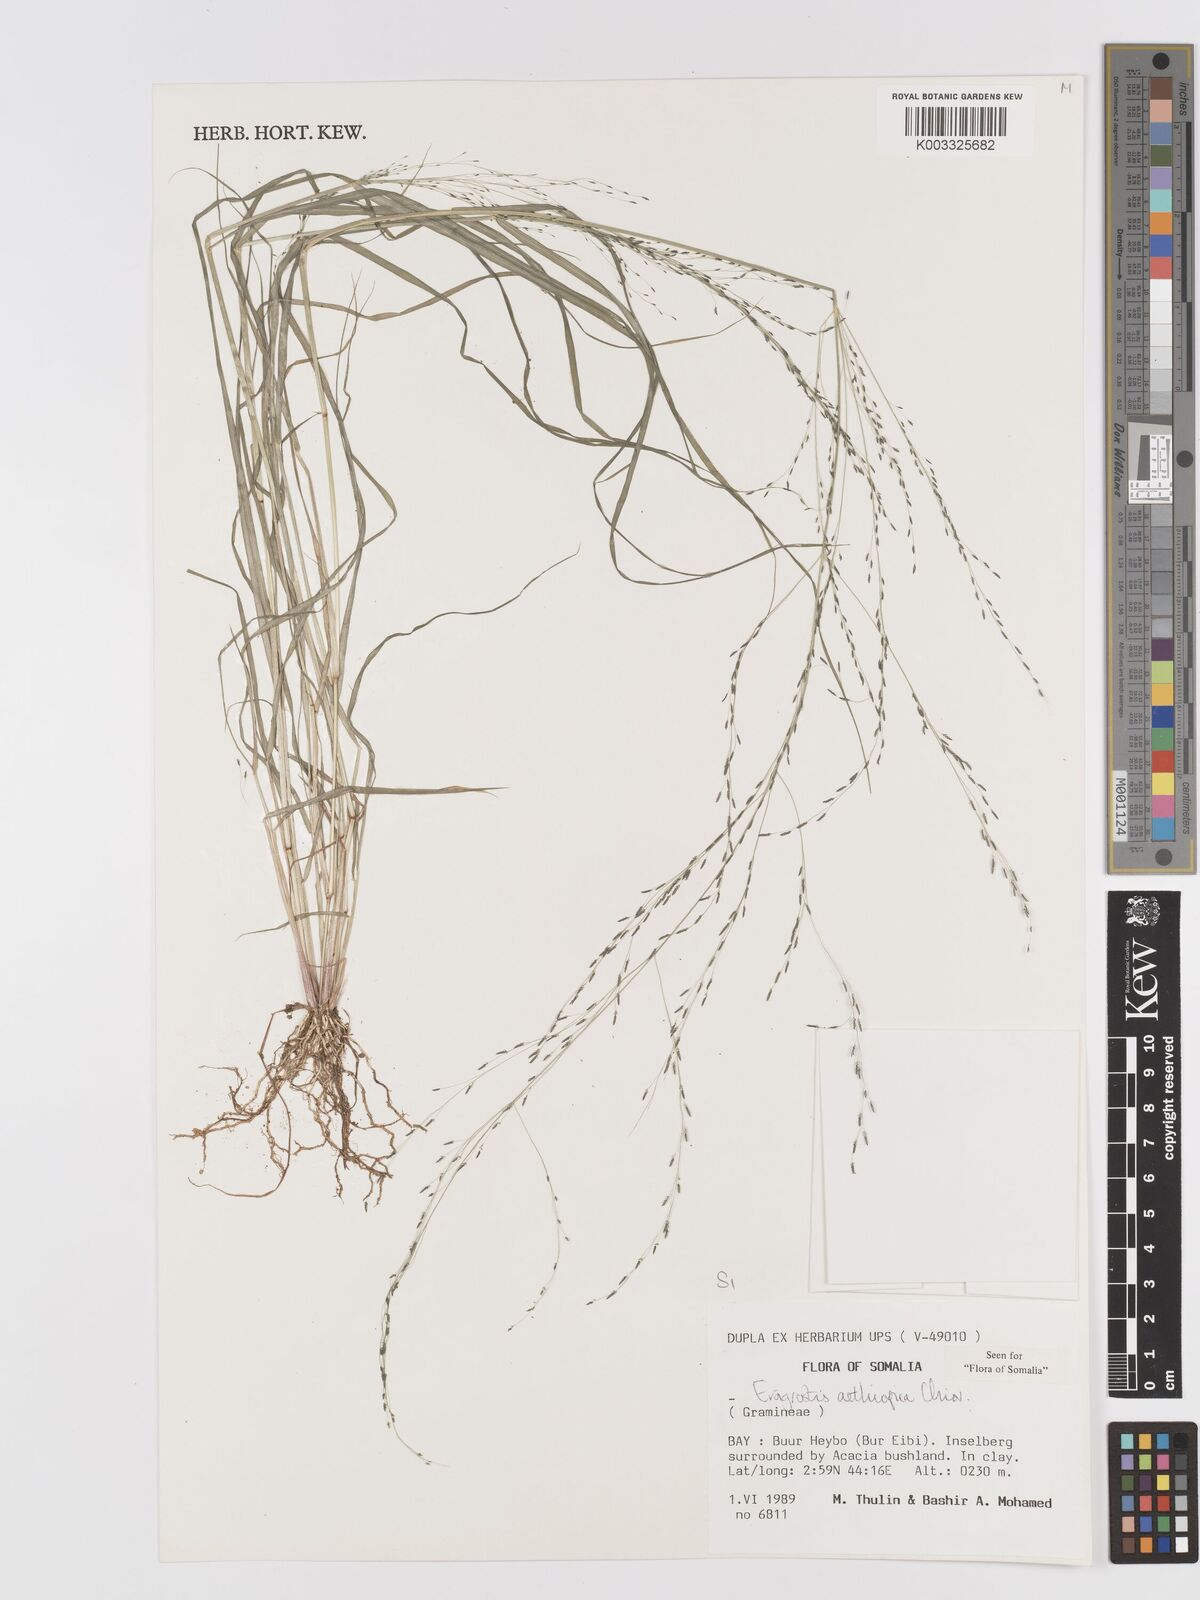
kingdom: Plantae
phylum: Tracheophyta
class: Liliopsida
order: Poales
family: Poaceae
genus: Eragrostis
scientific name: Eragrostis aethiopica
